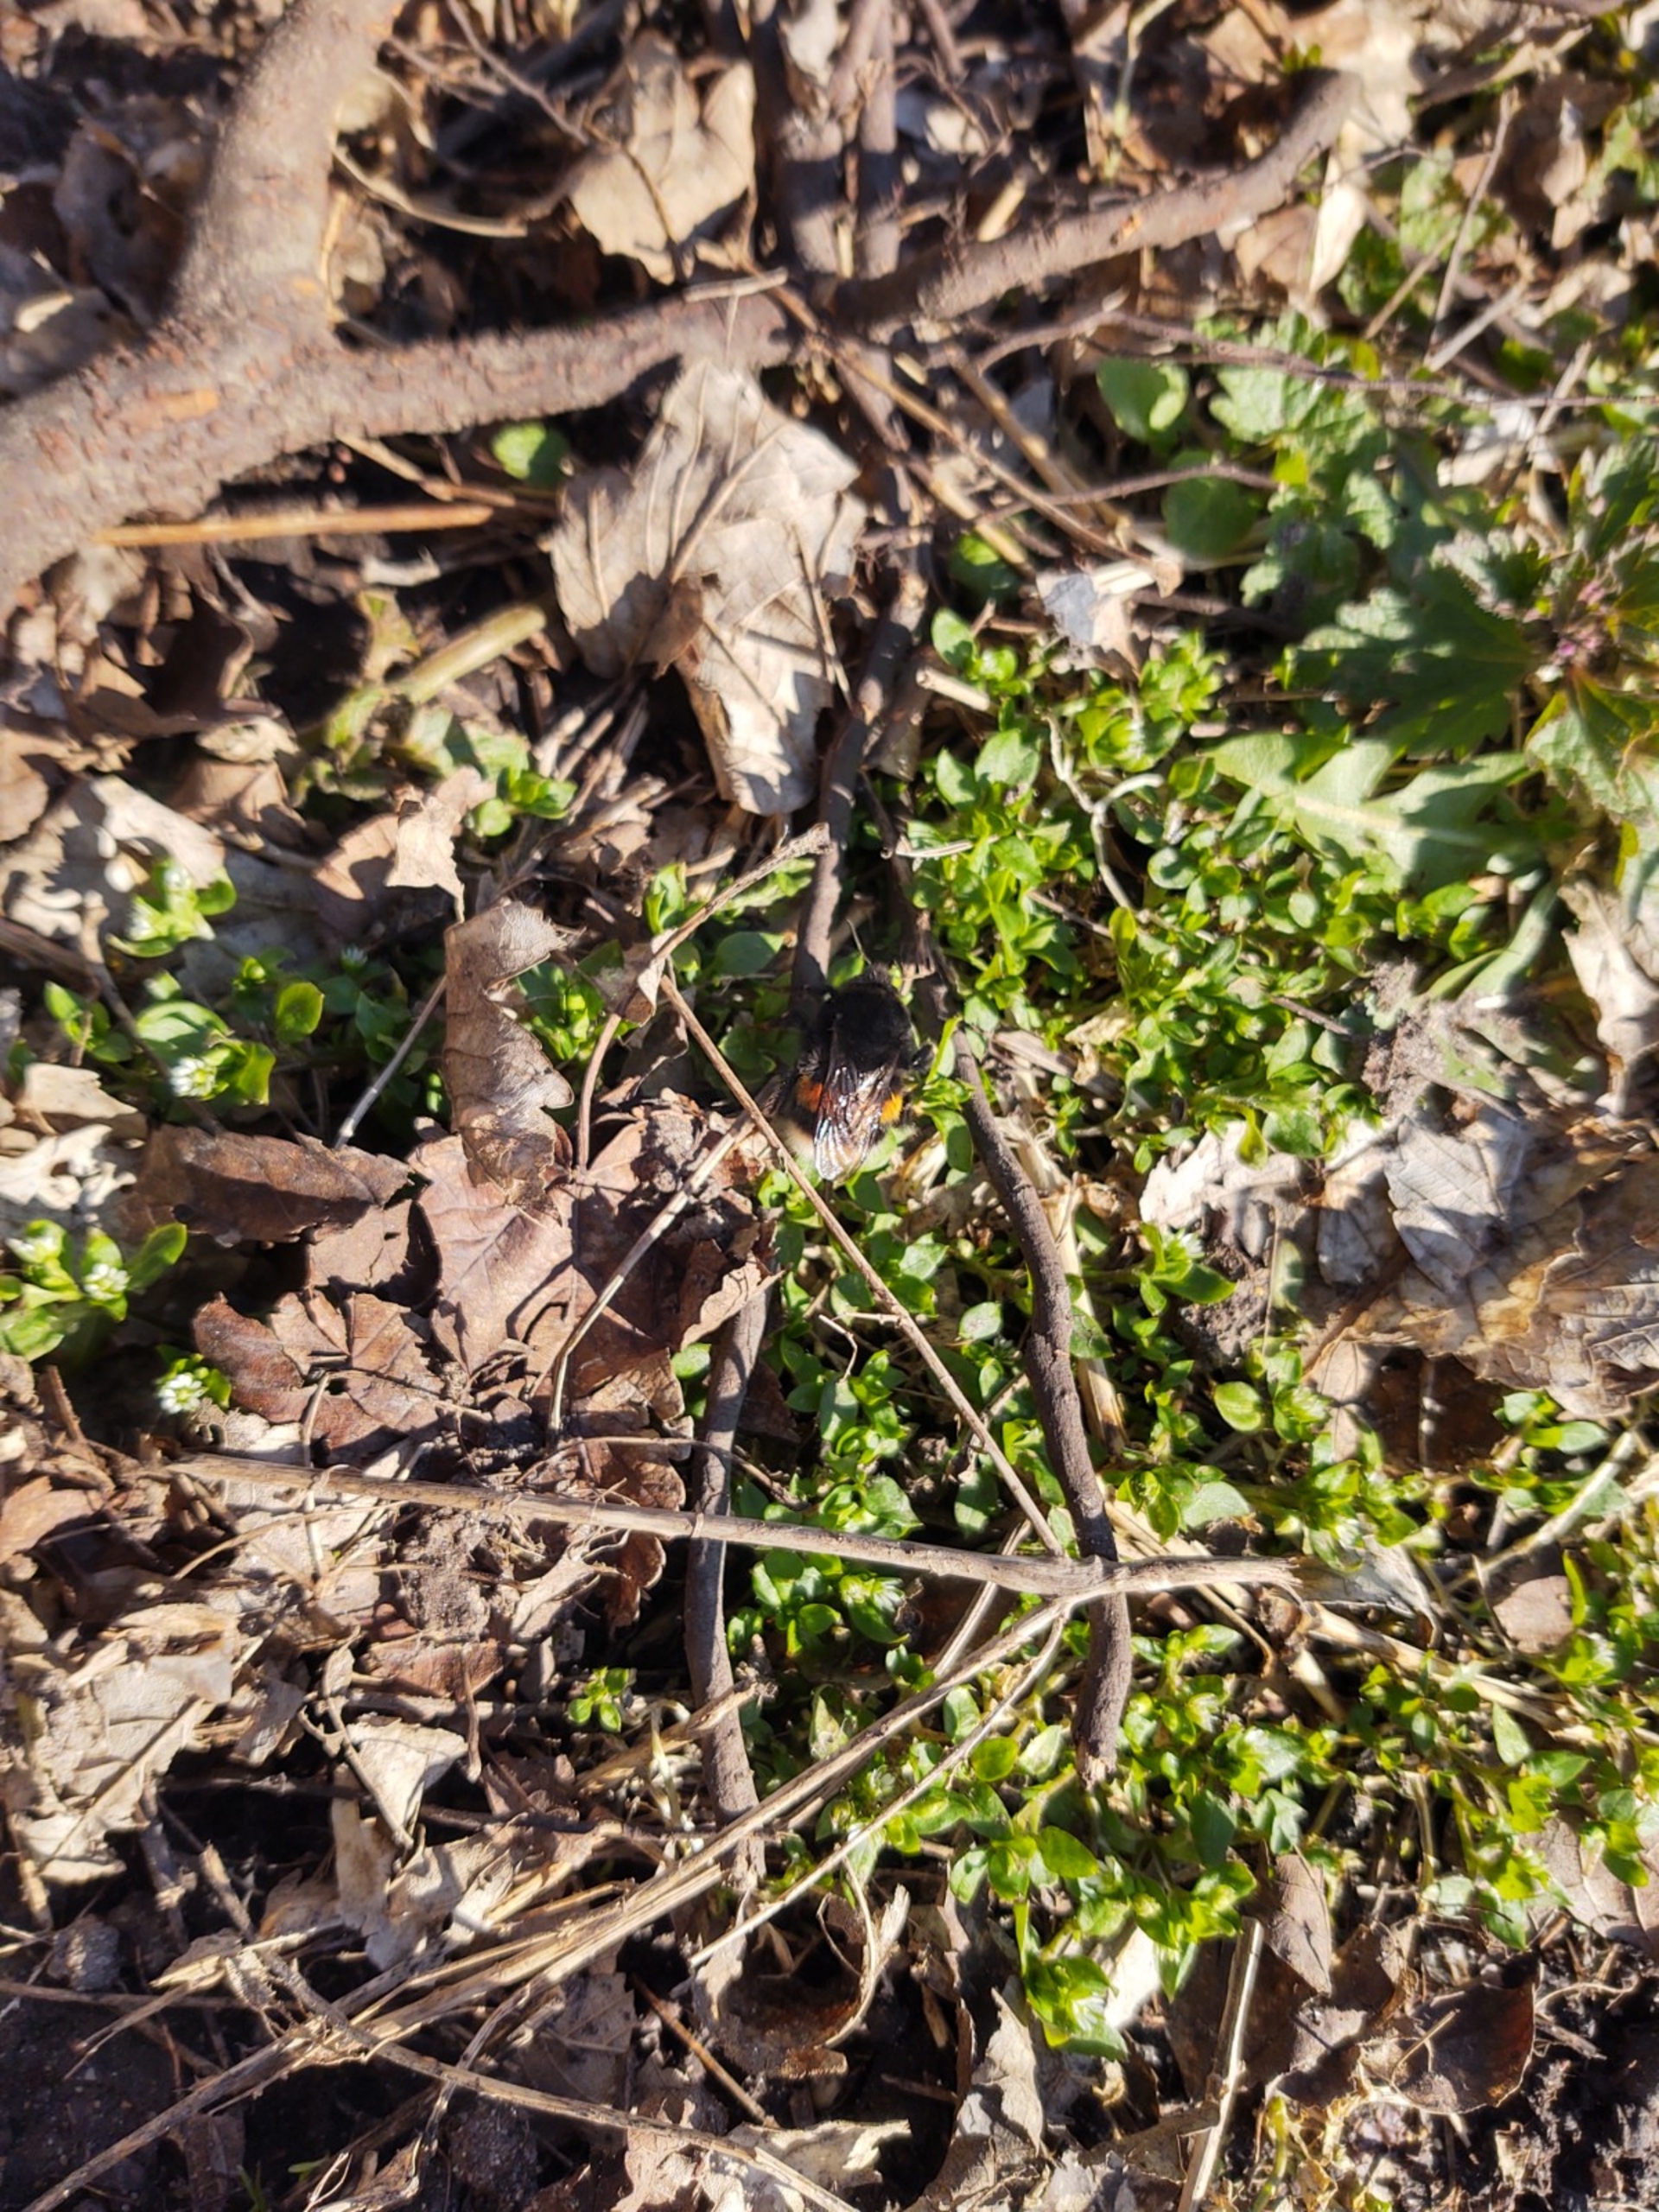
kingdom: Animalia
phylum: Arthropoda
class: Insecta
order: Hymenoptera
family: Apidae
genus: Bombus
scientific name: Bombus terrestris
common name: Mørk jordhumle
